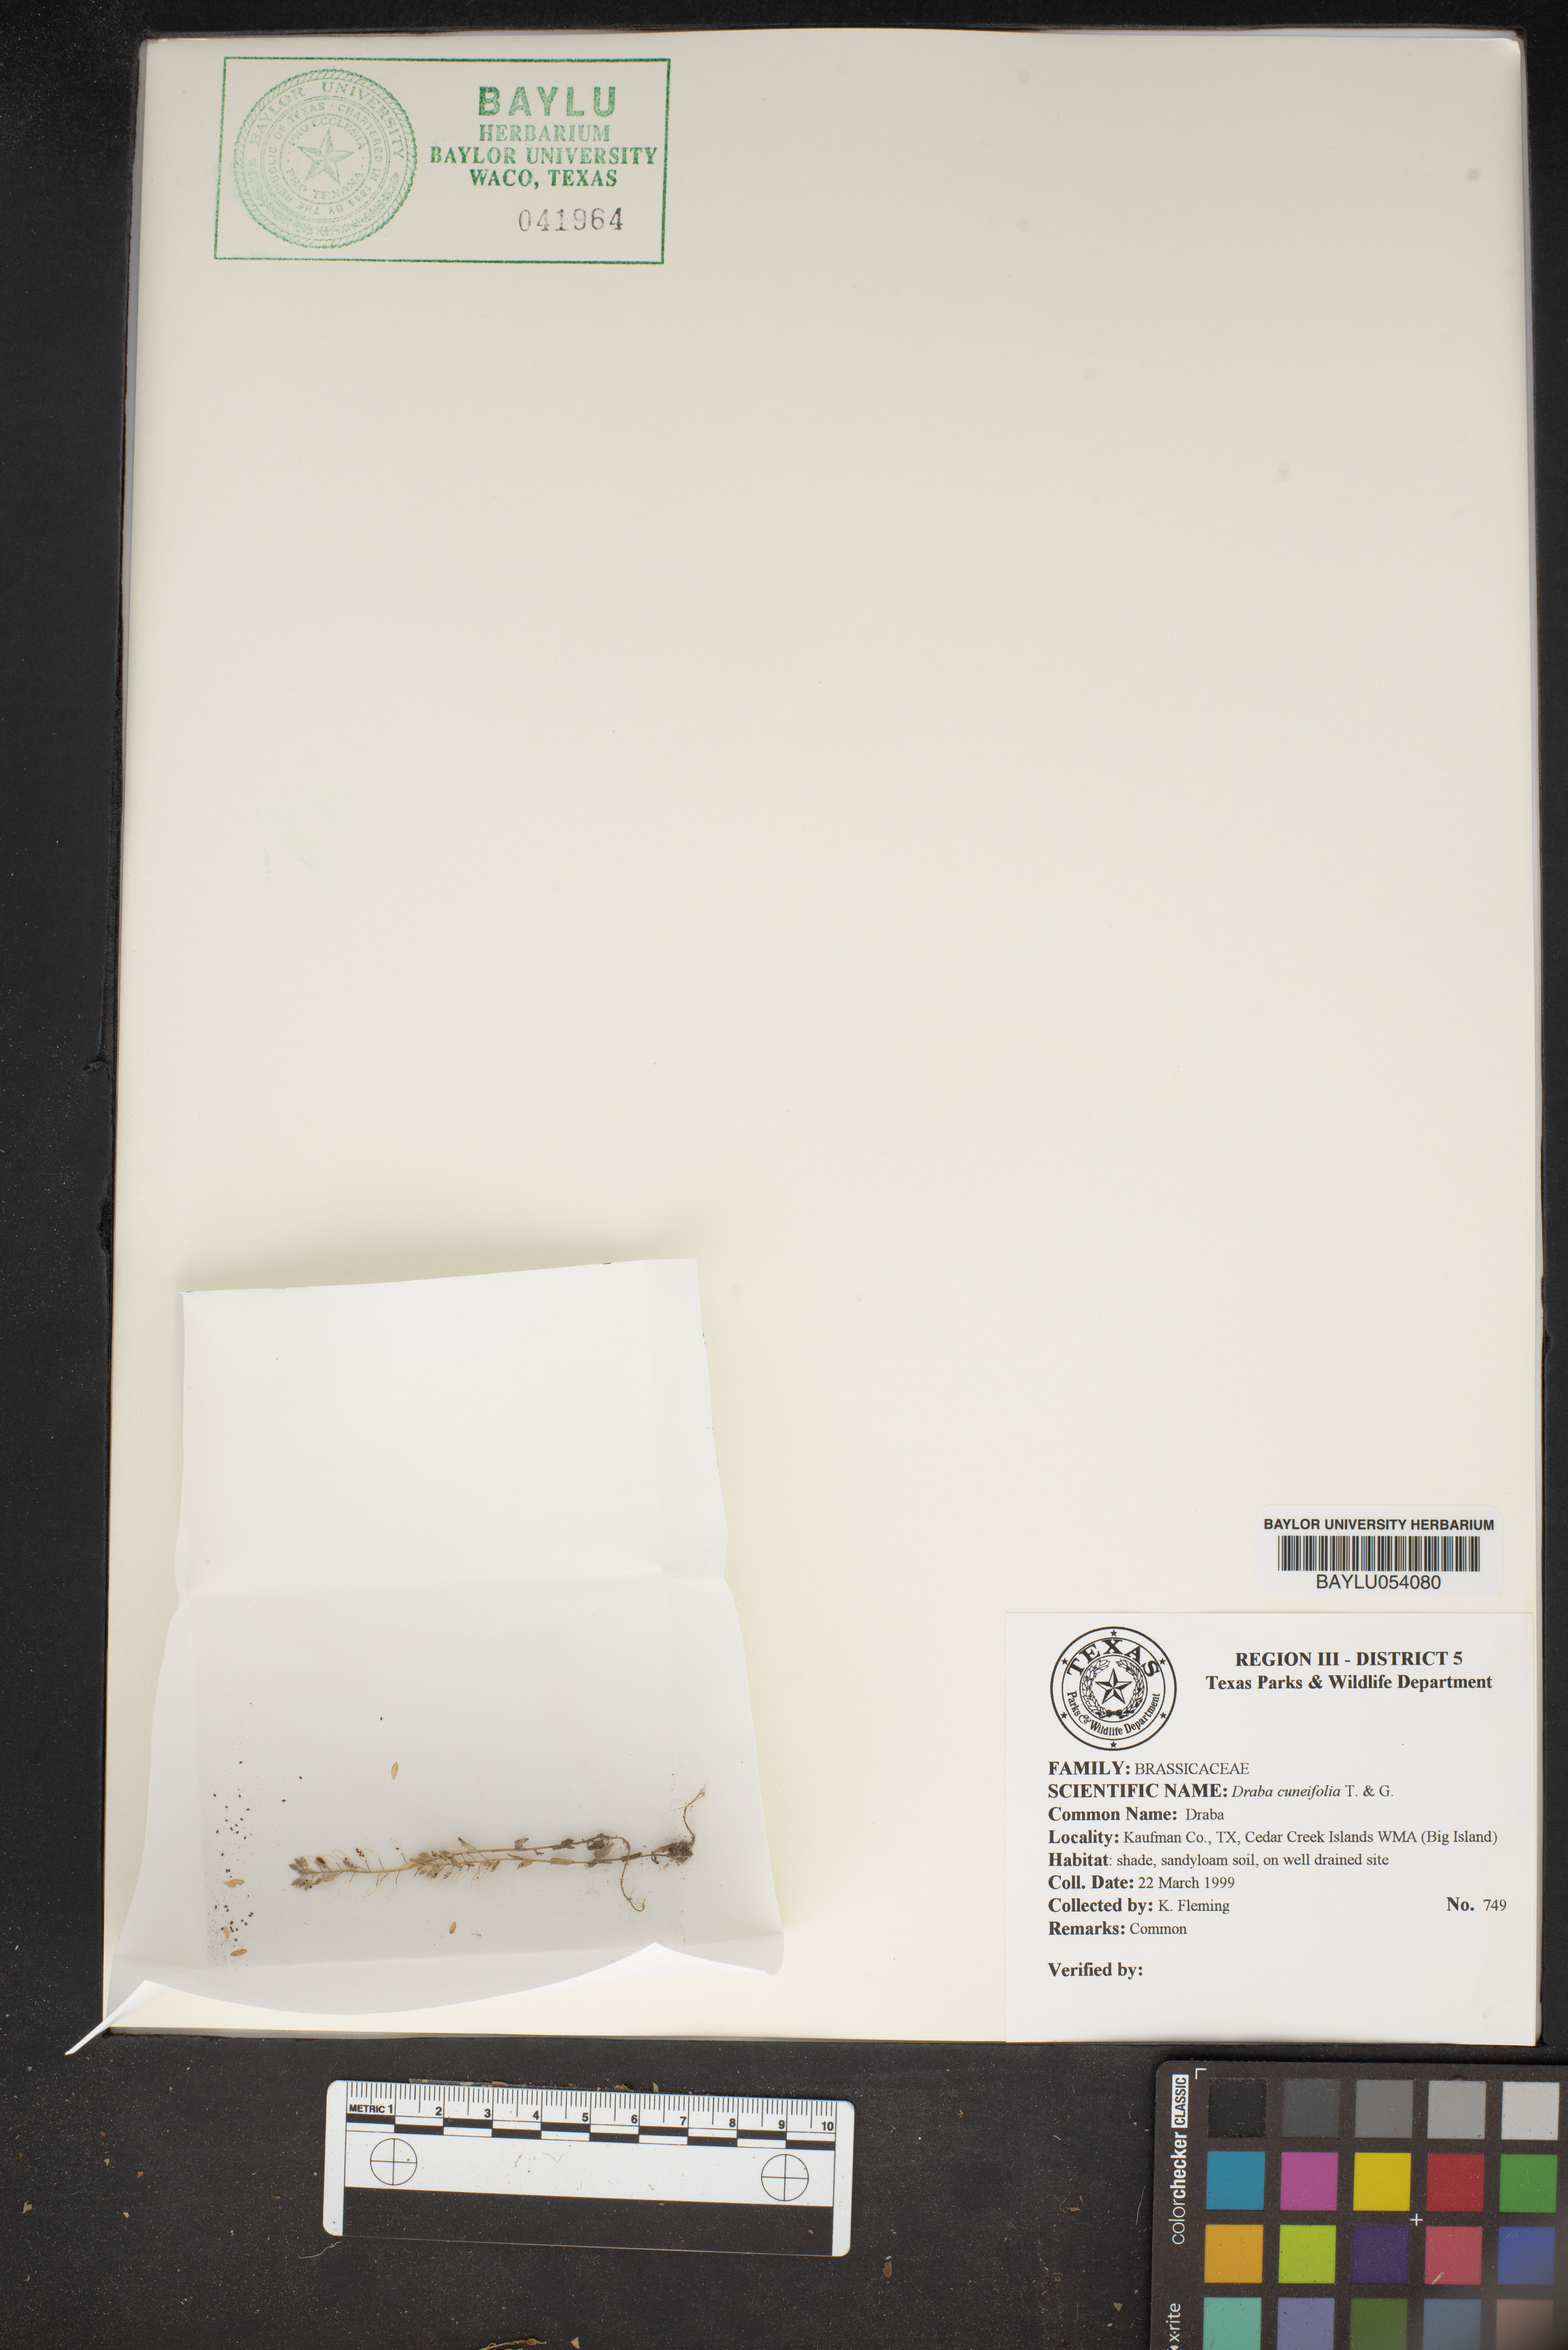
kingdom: Plantae
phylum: Tracheophyta
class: Magnoliopsida
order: Brassicales
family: Brassicaceae
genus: Tomostima
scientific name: Tomostima cuneifolia
